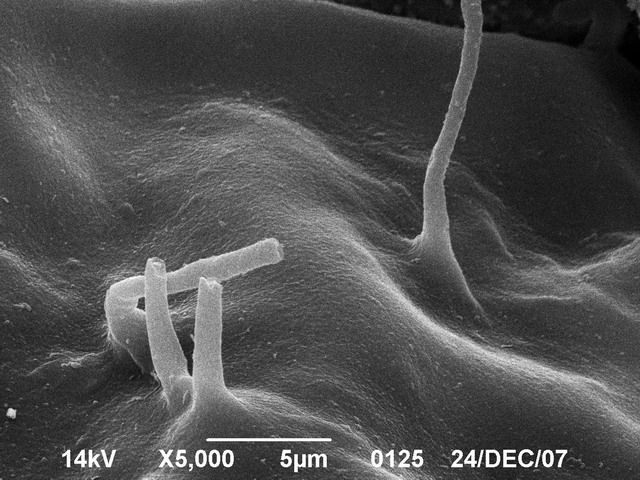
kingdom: Protozoa
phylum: Mycetozoa
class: Myxomycetes
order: Stemonitidales
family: Stemonitidaceae
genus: Colloderma
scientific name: Colloderma robustum
